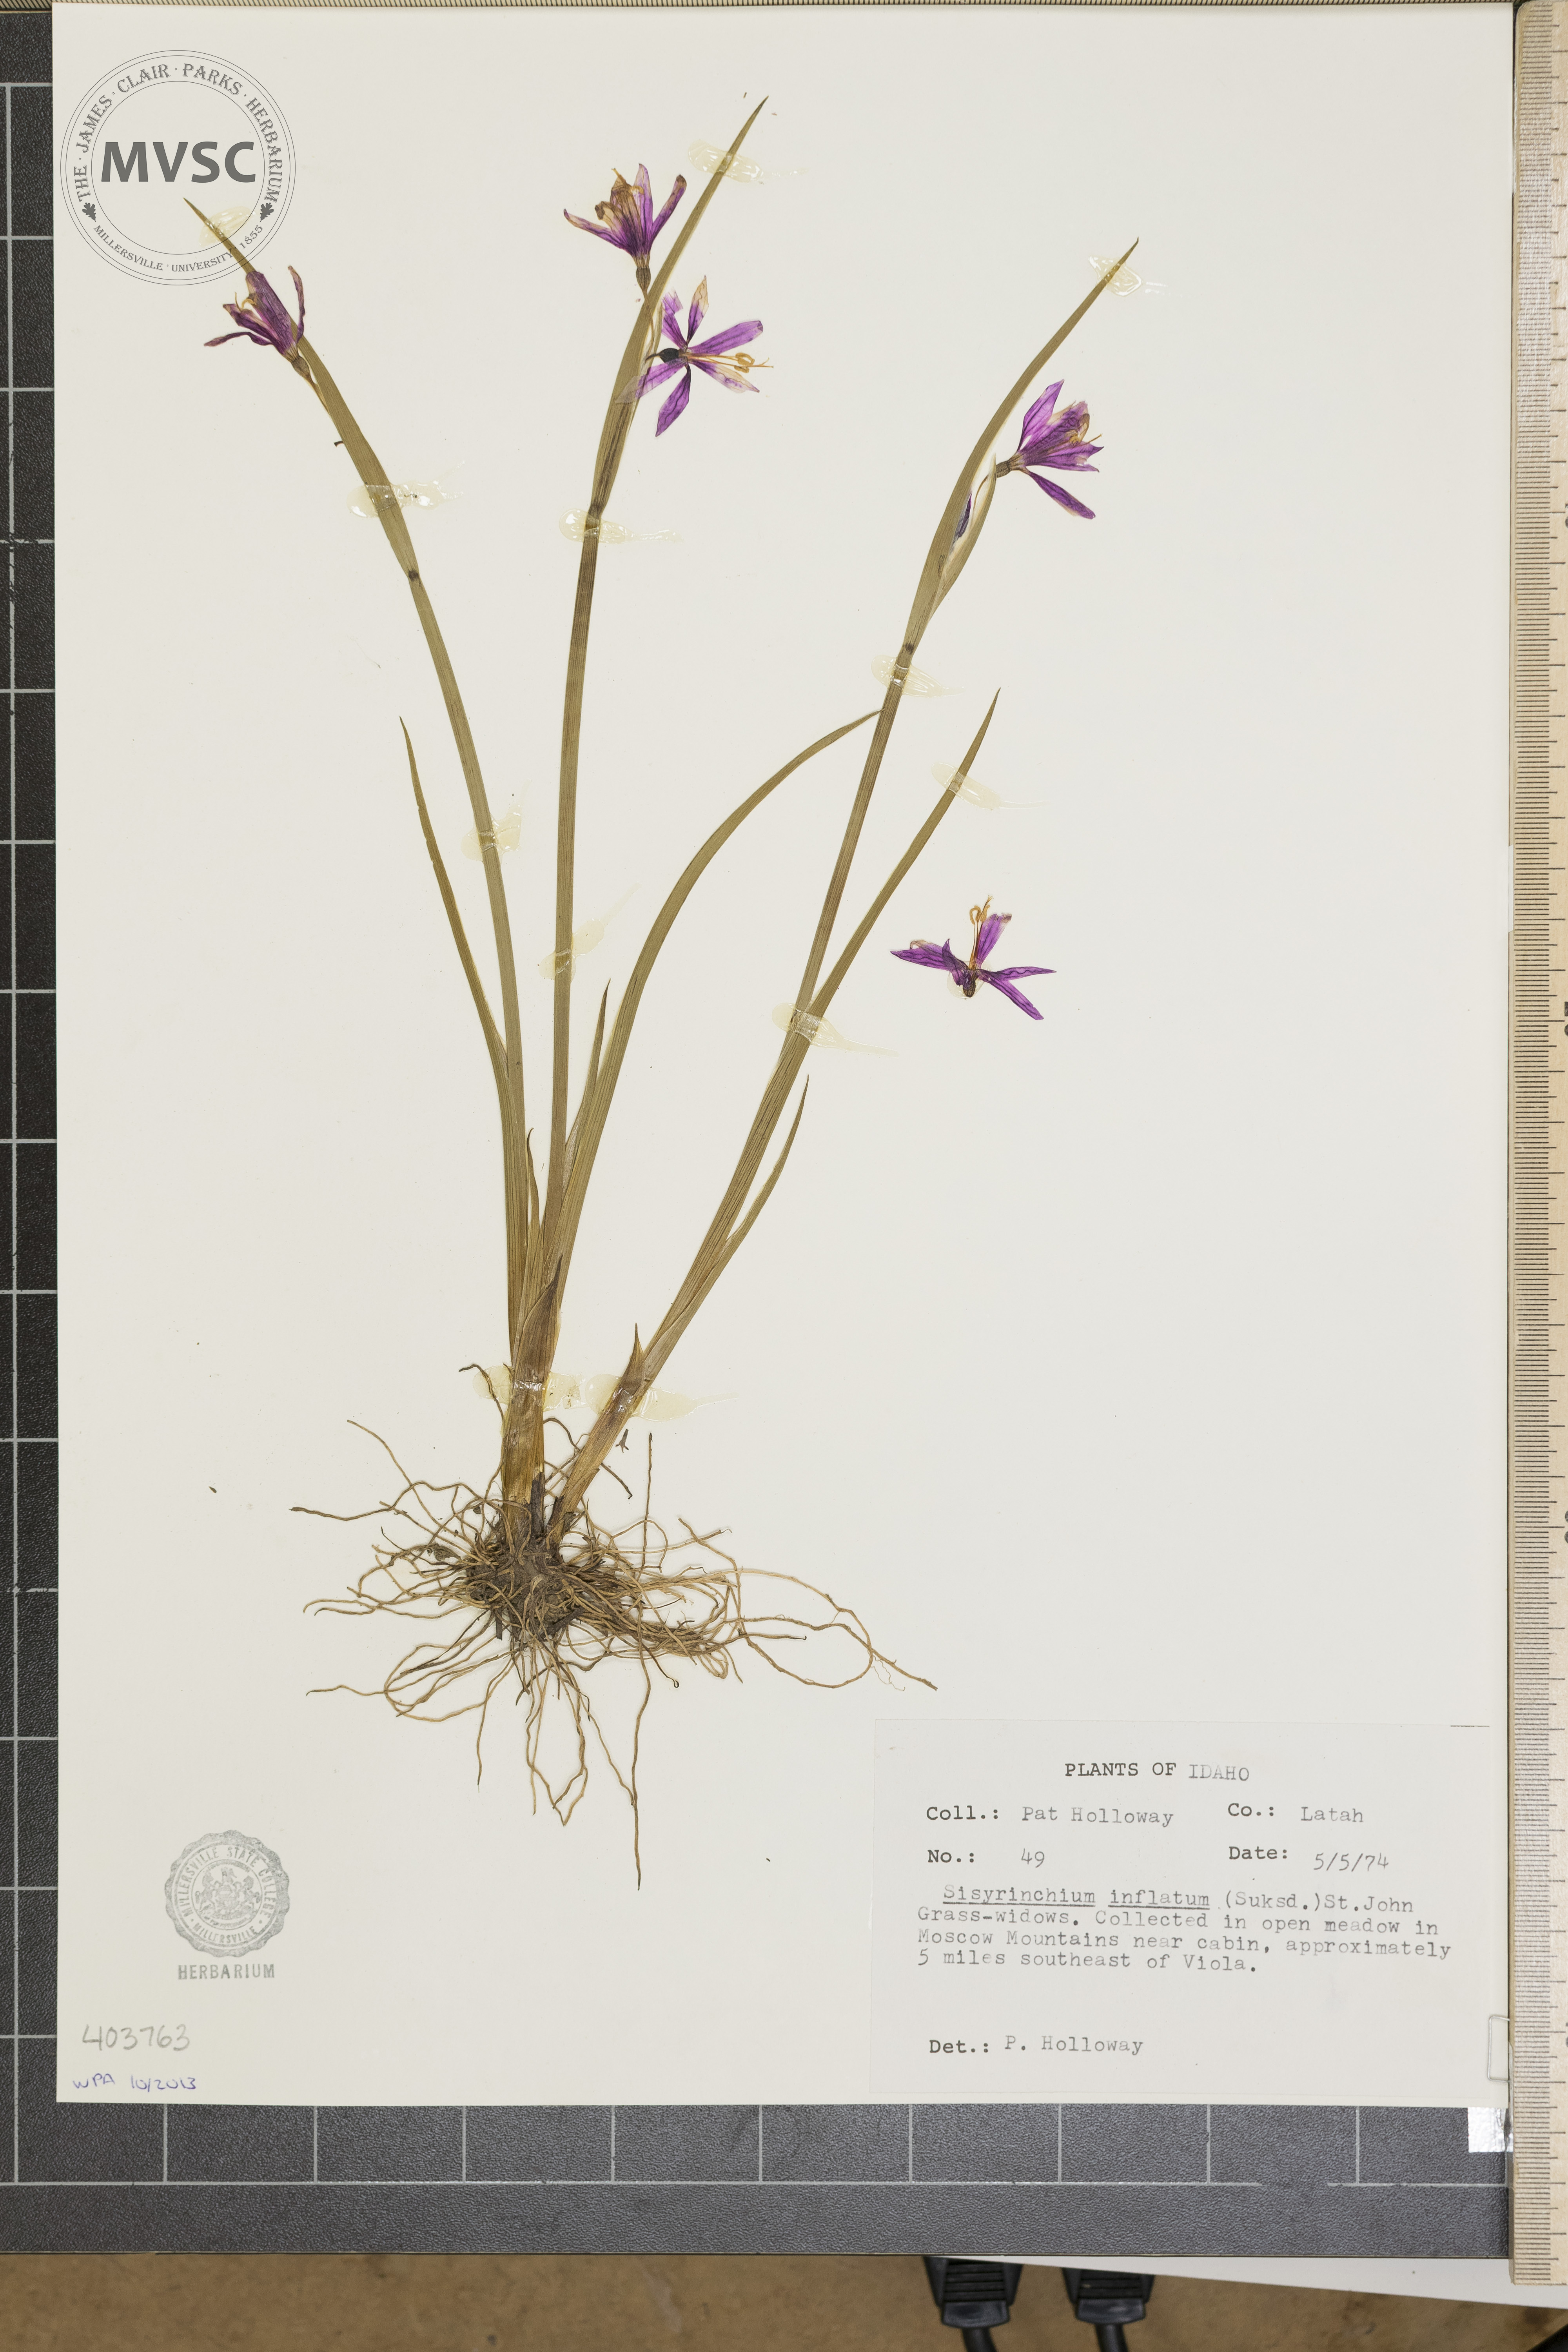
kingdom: Plantae
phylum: Tracheophyta
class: Liliopsida
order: Asparagales
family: Iridaceae
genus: Olsynium
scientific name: Olsynium douglasii
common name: Douglas' grasswidow
